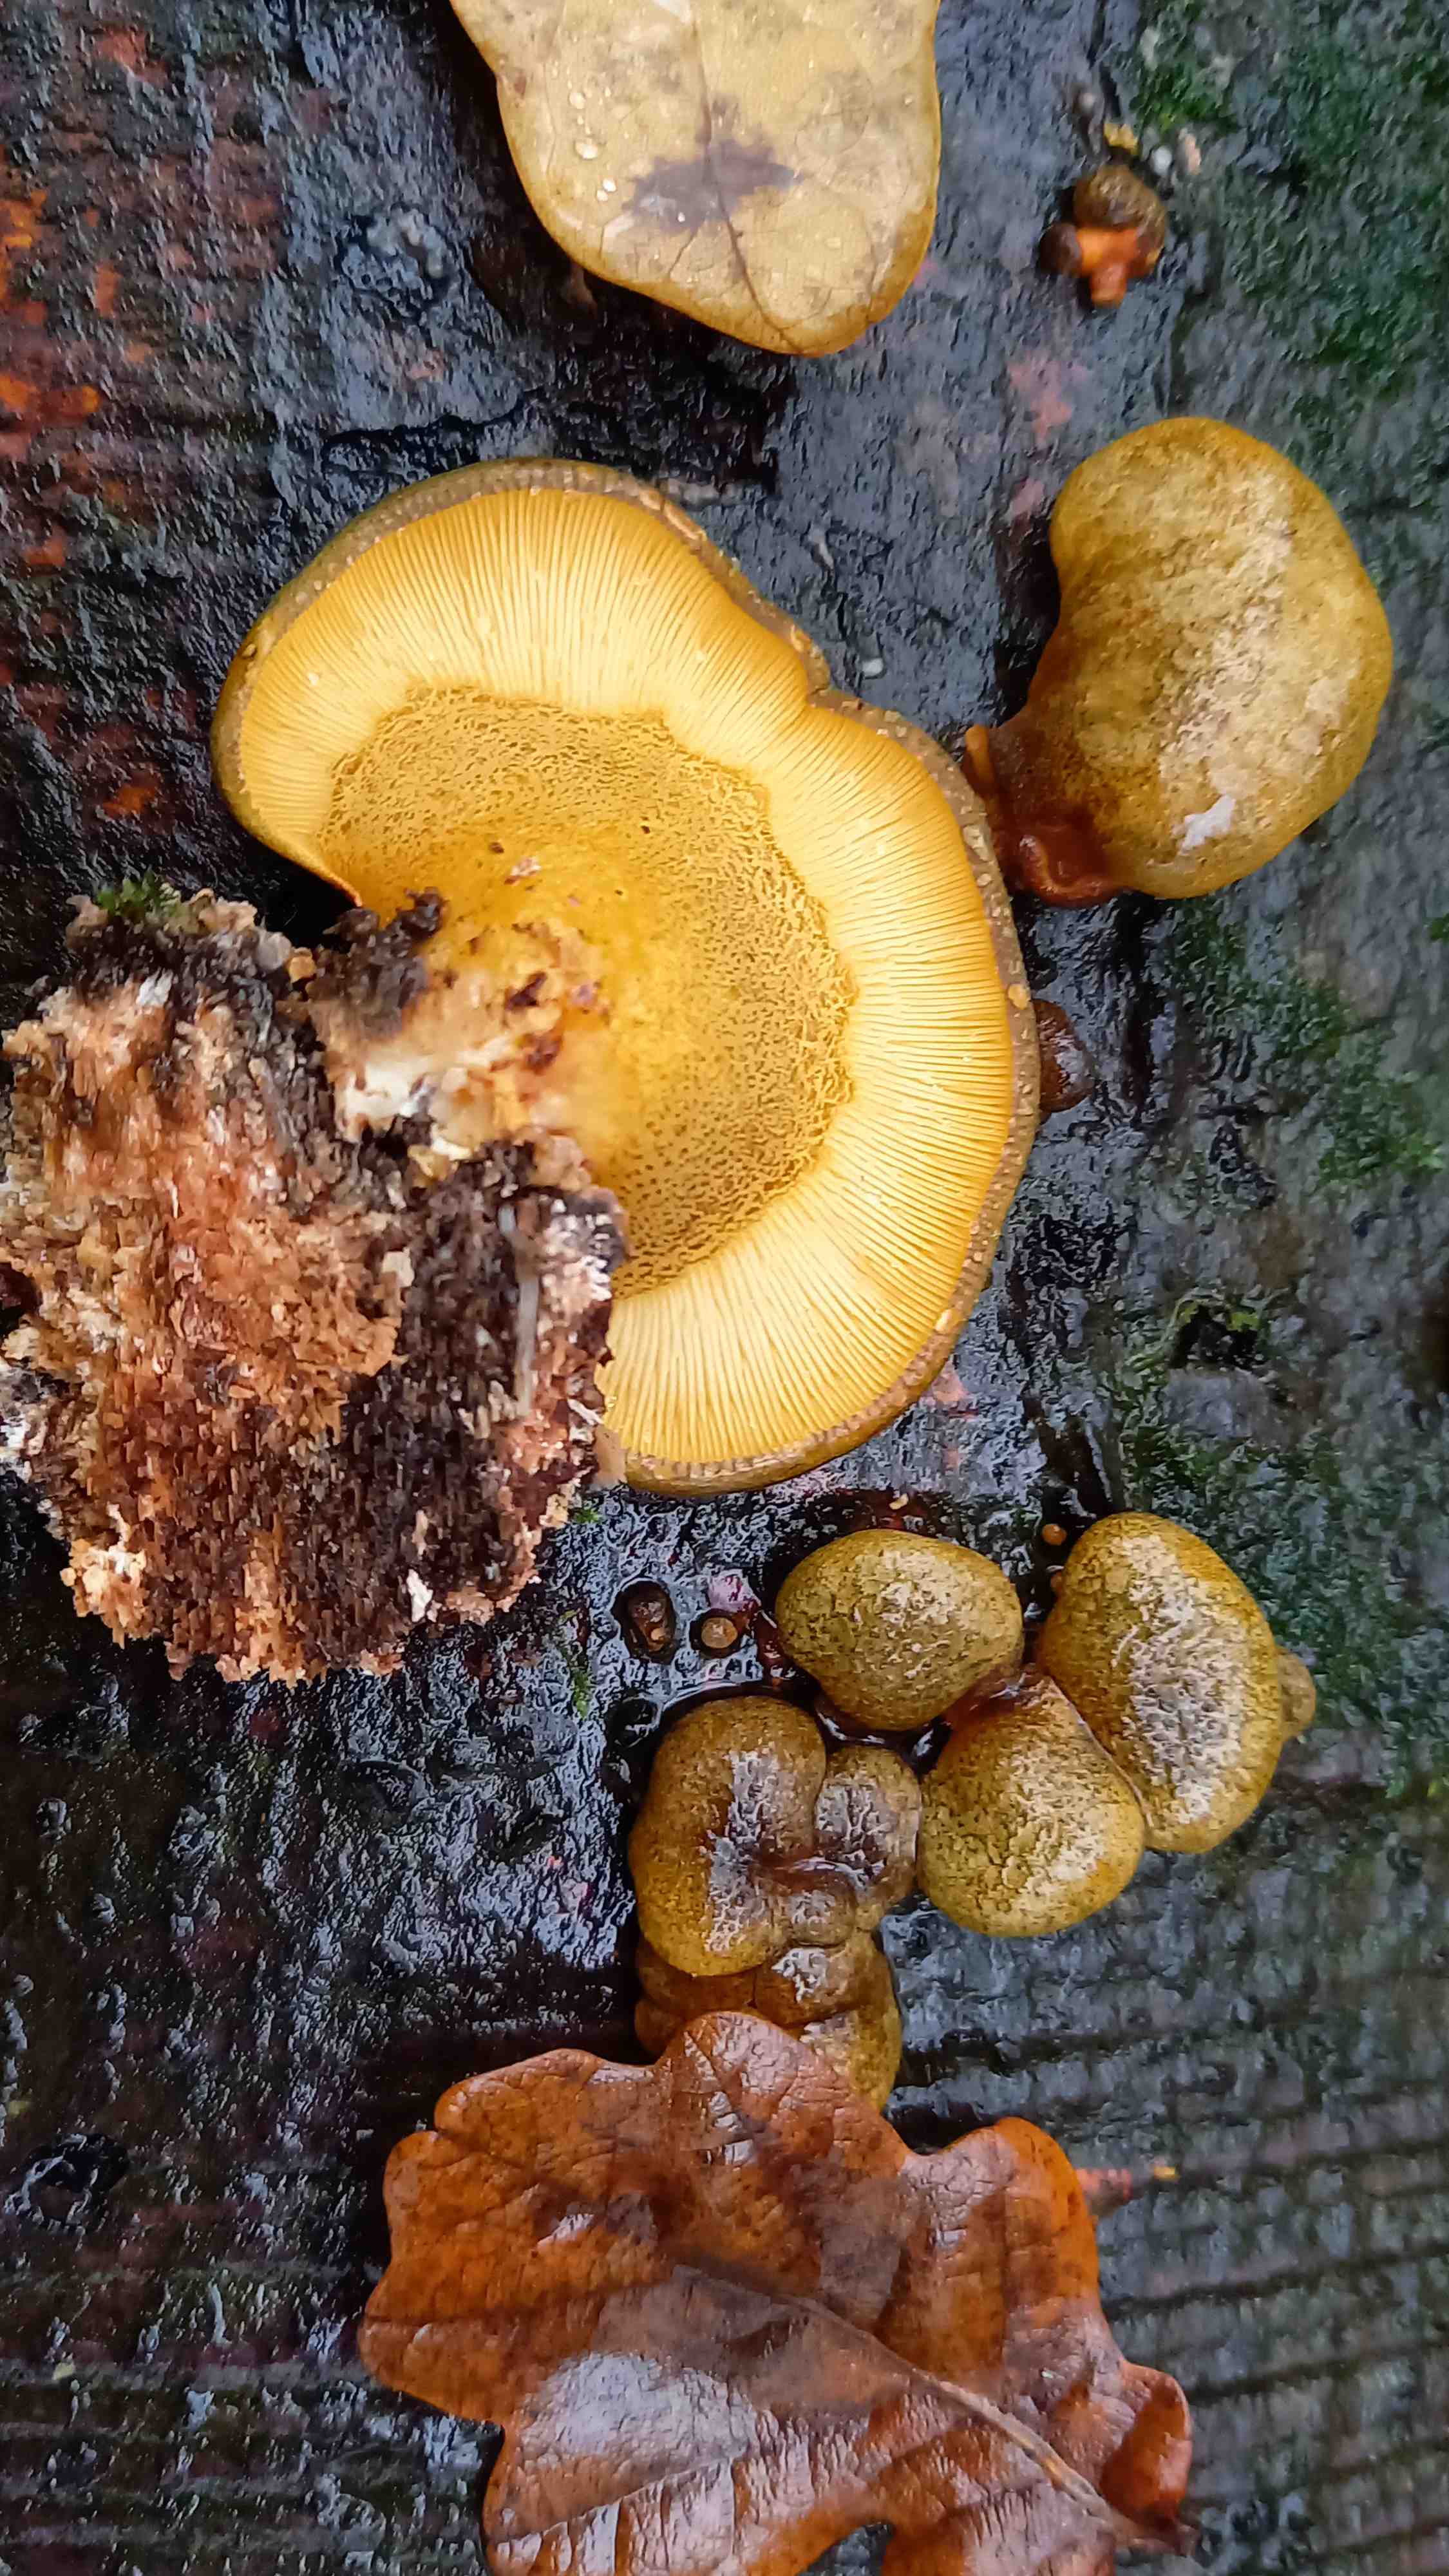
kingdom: Fungi
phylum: Basidiomycota
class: Agaricomycetes
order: Agaricales
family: Sarcomyxaceae
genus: Sarcomyxa
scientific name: Sarcomyxa serotina
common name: gummihat
